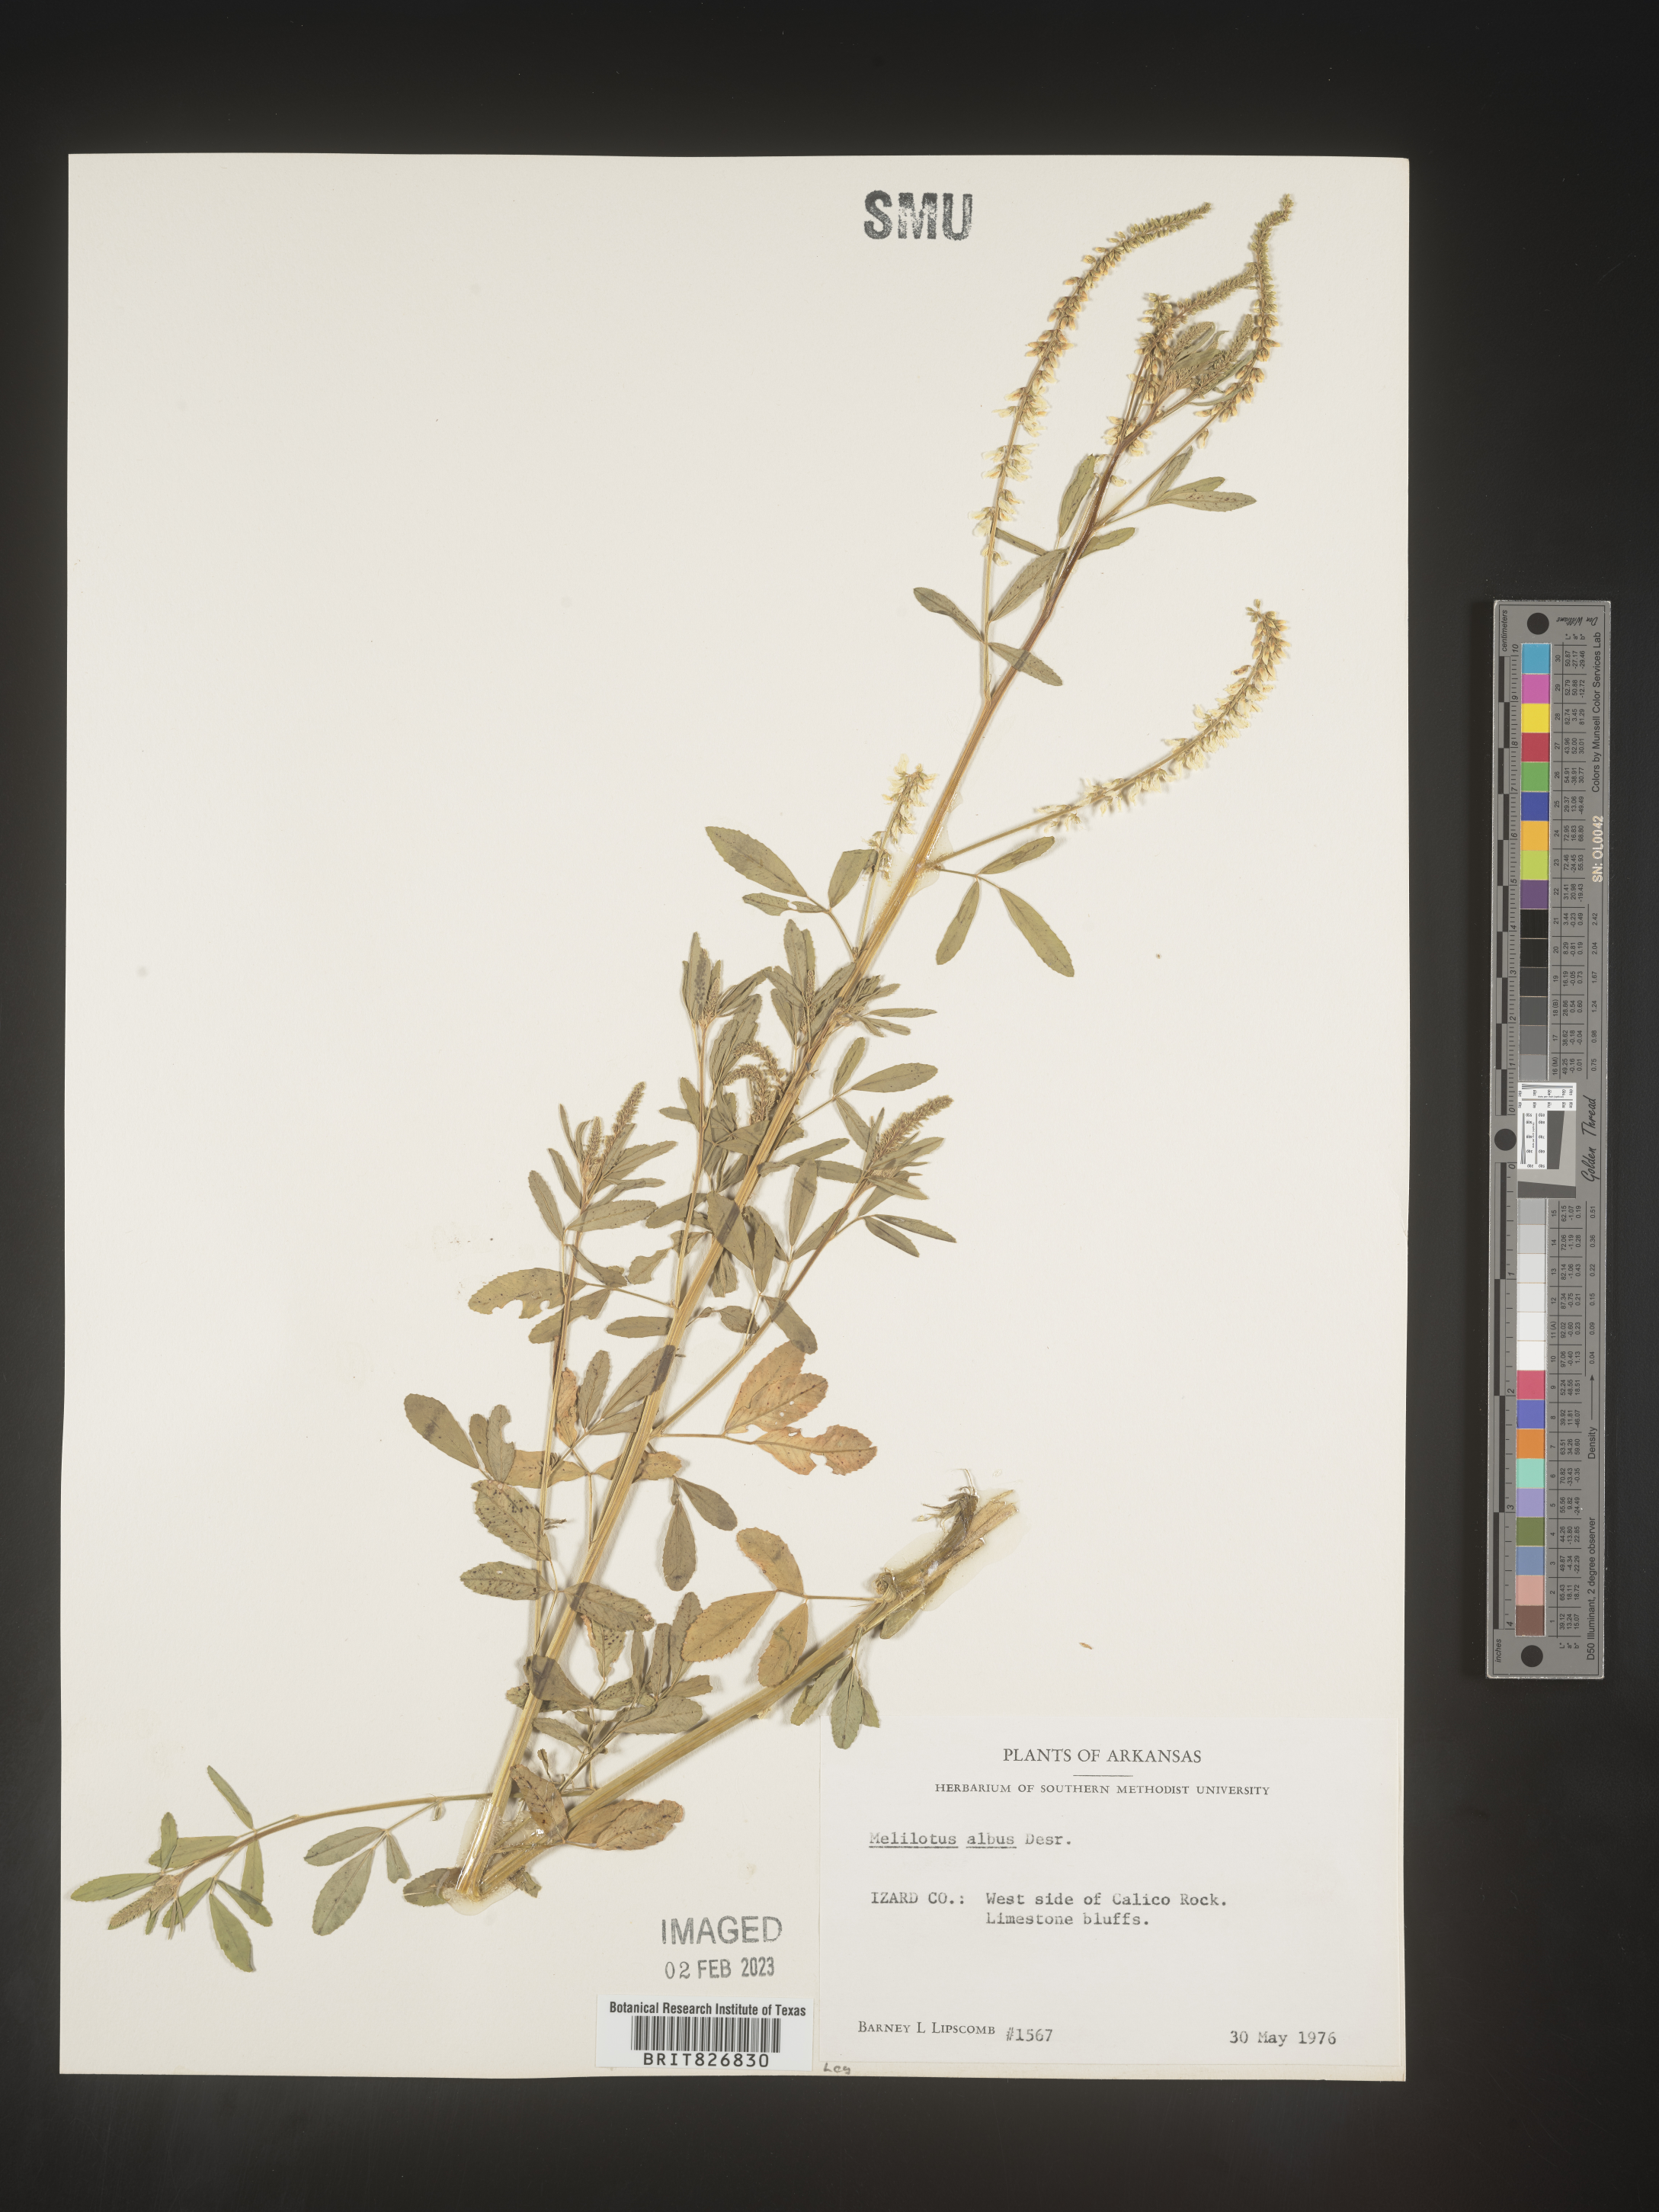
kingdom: Plantae
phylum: Tracheophyta
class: Magnoliopsida
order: Fabales
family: Fabaceae
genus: Melilotus
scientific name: Melilotus albus
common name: White melilot
